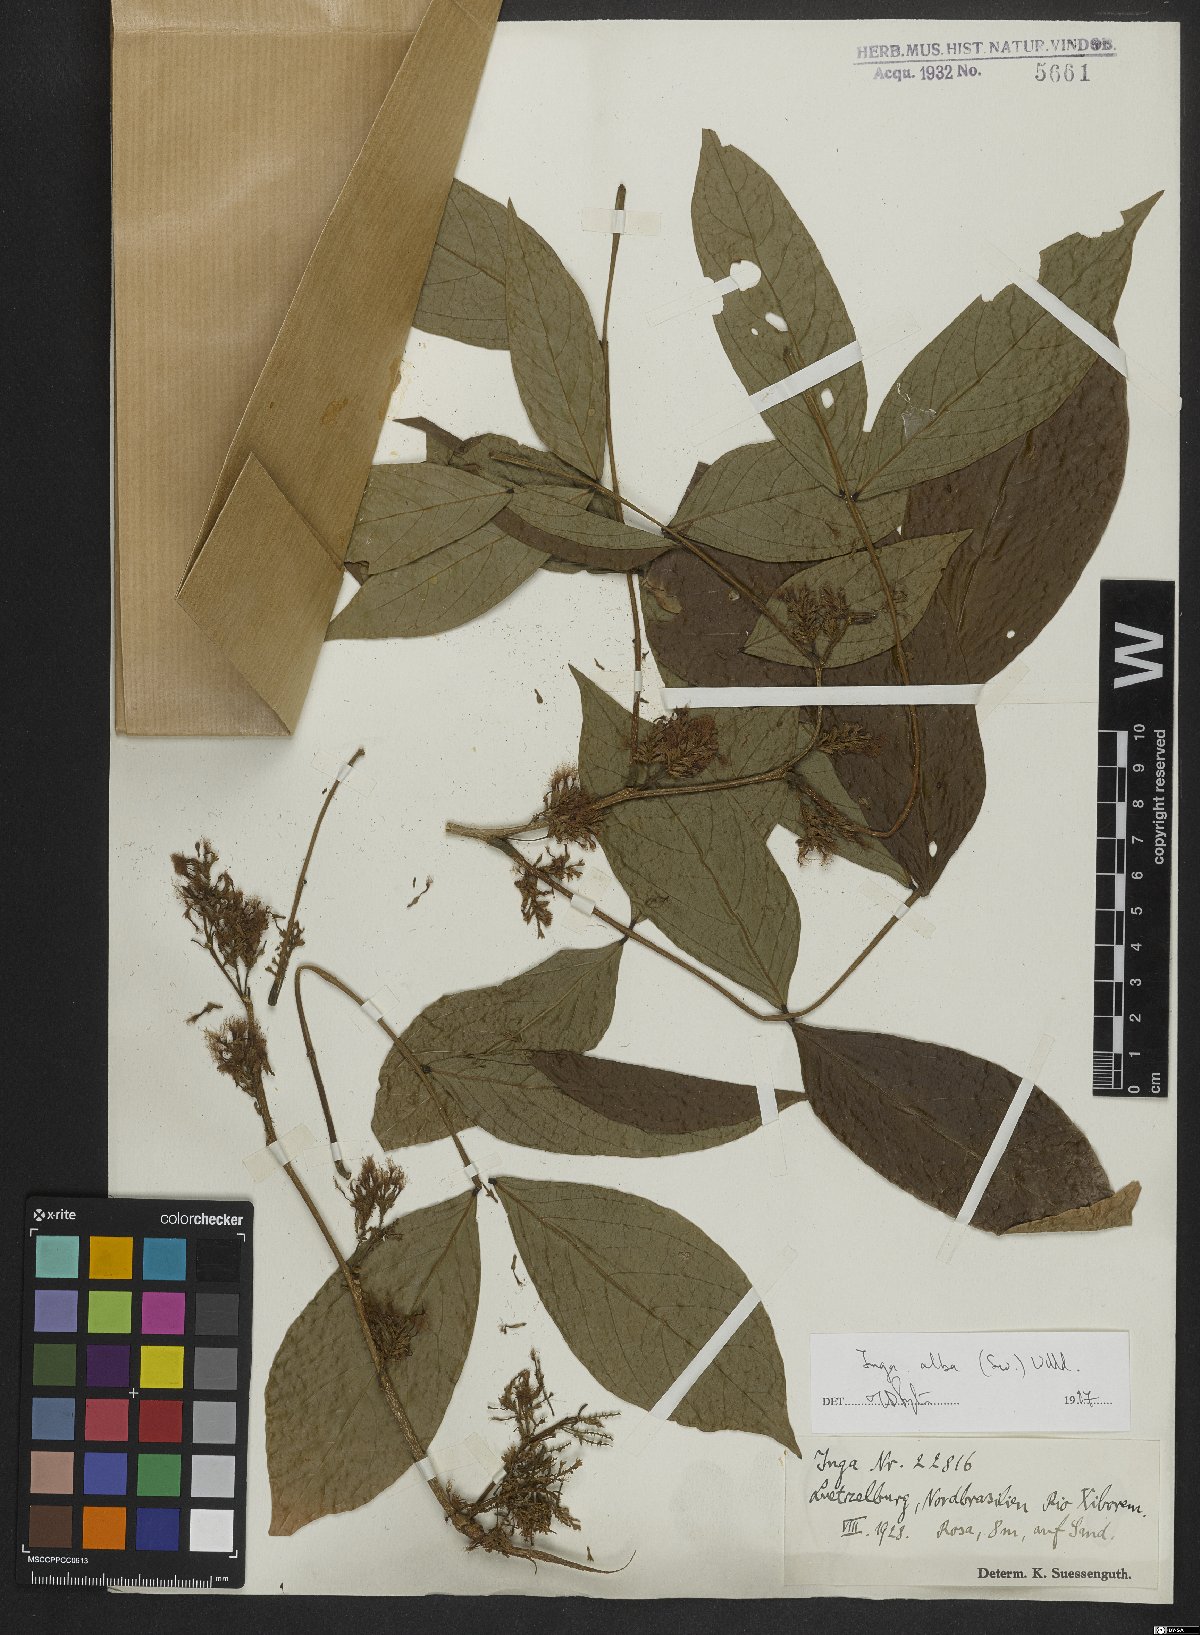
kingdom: Plantae
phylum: Tracheophyta
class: Magnoliopsida
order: Fabales
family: Fabaceae
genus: Inga
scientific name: Inga alba
